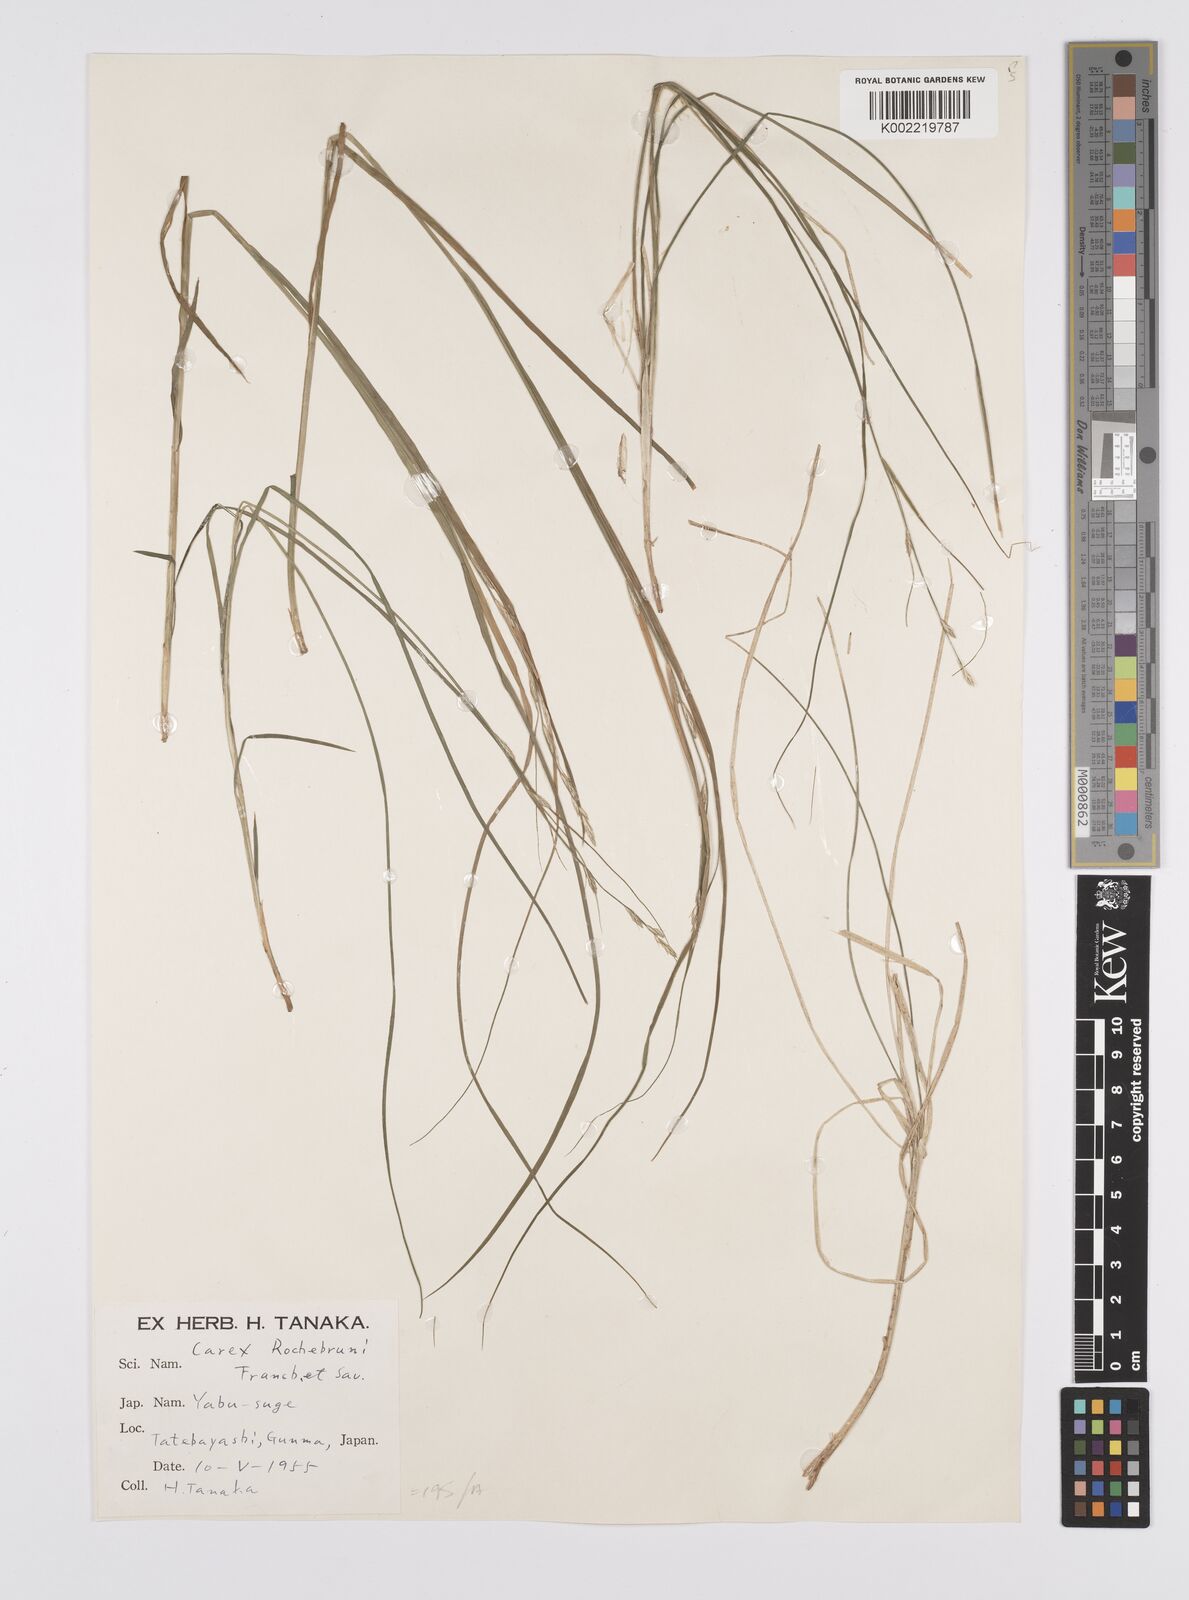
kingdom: Plantae
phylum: Tracheophyta
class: Liliopsida
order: Poales
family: Cyperaceae
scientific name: Cyperaceae
